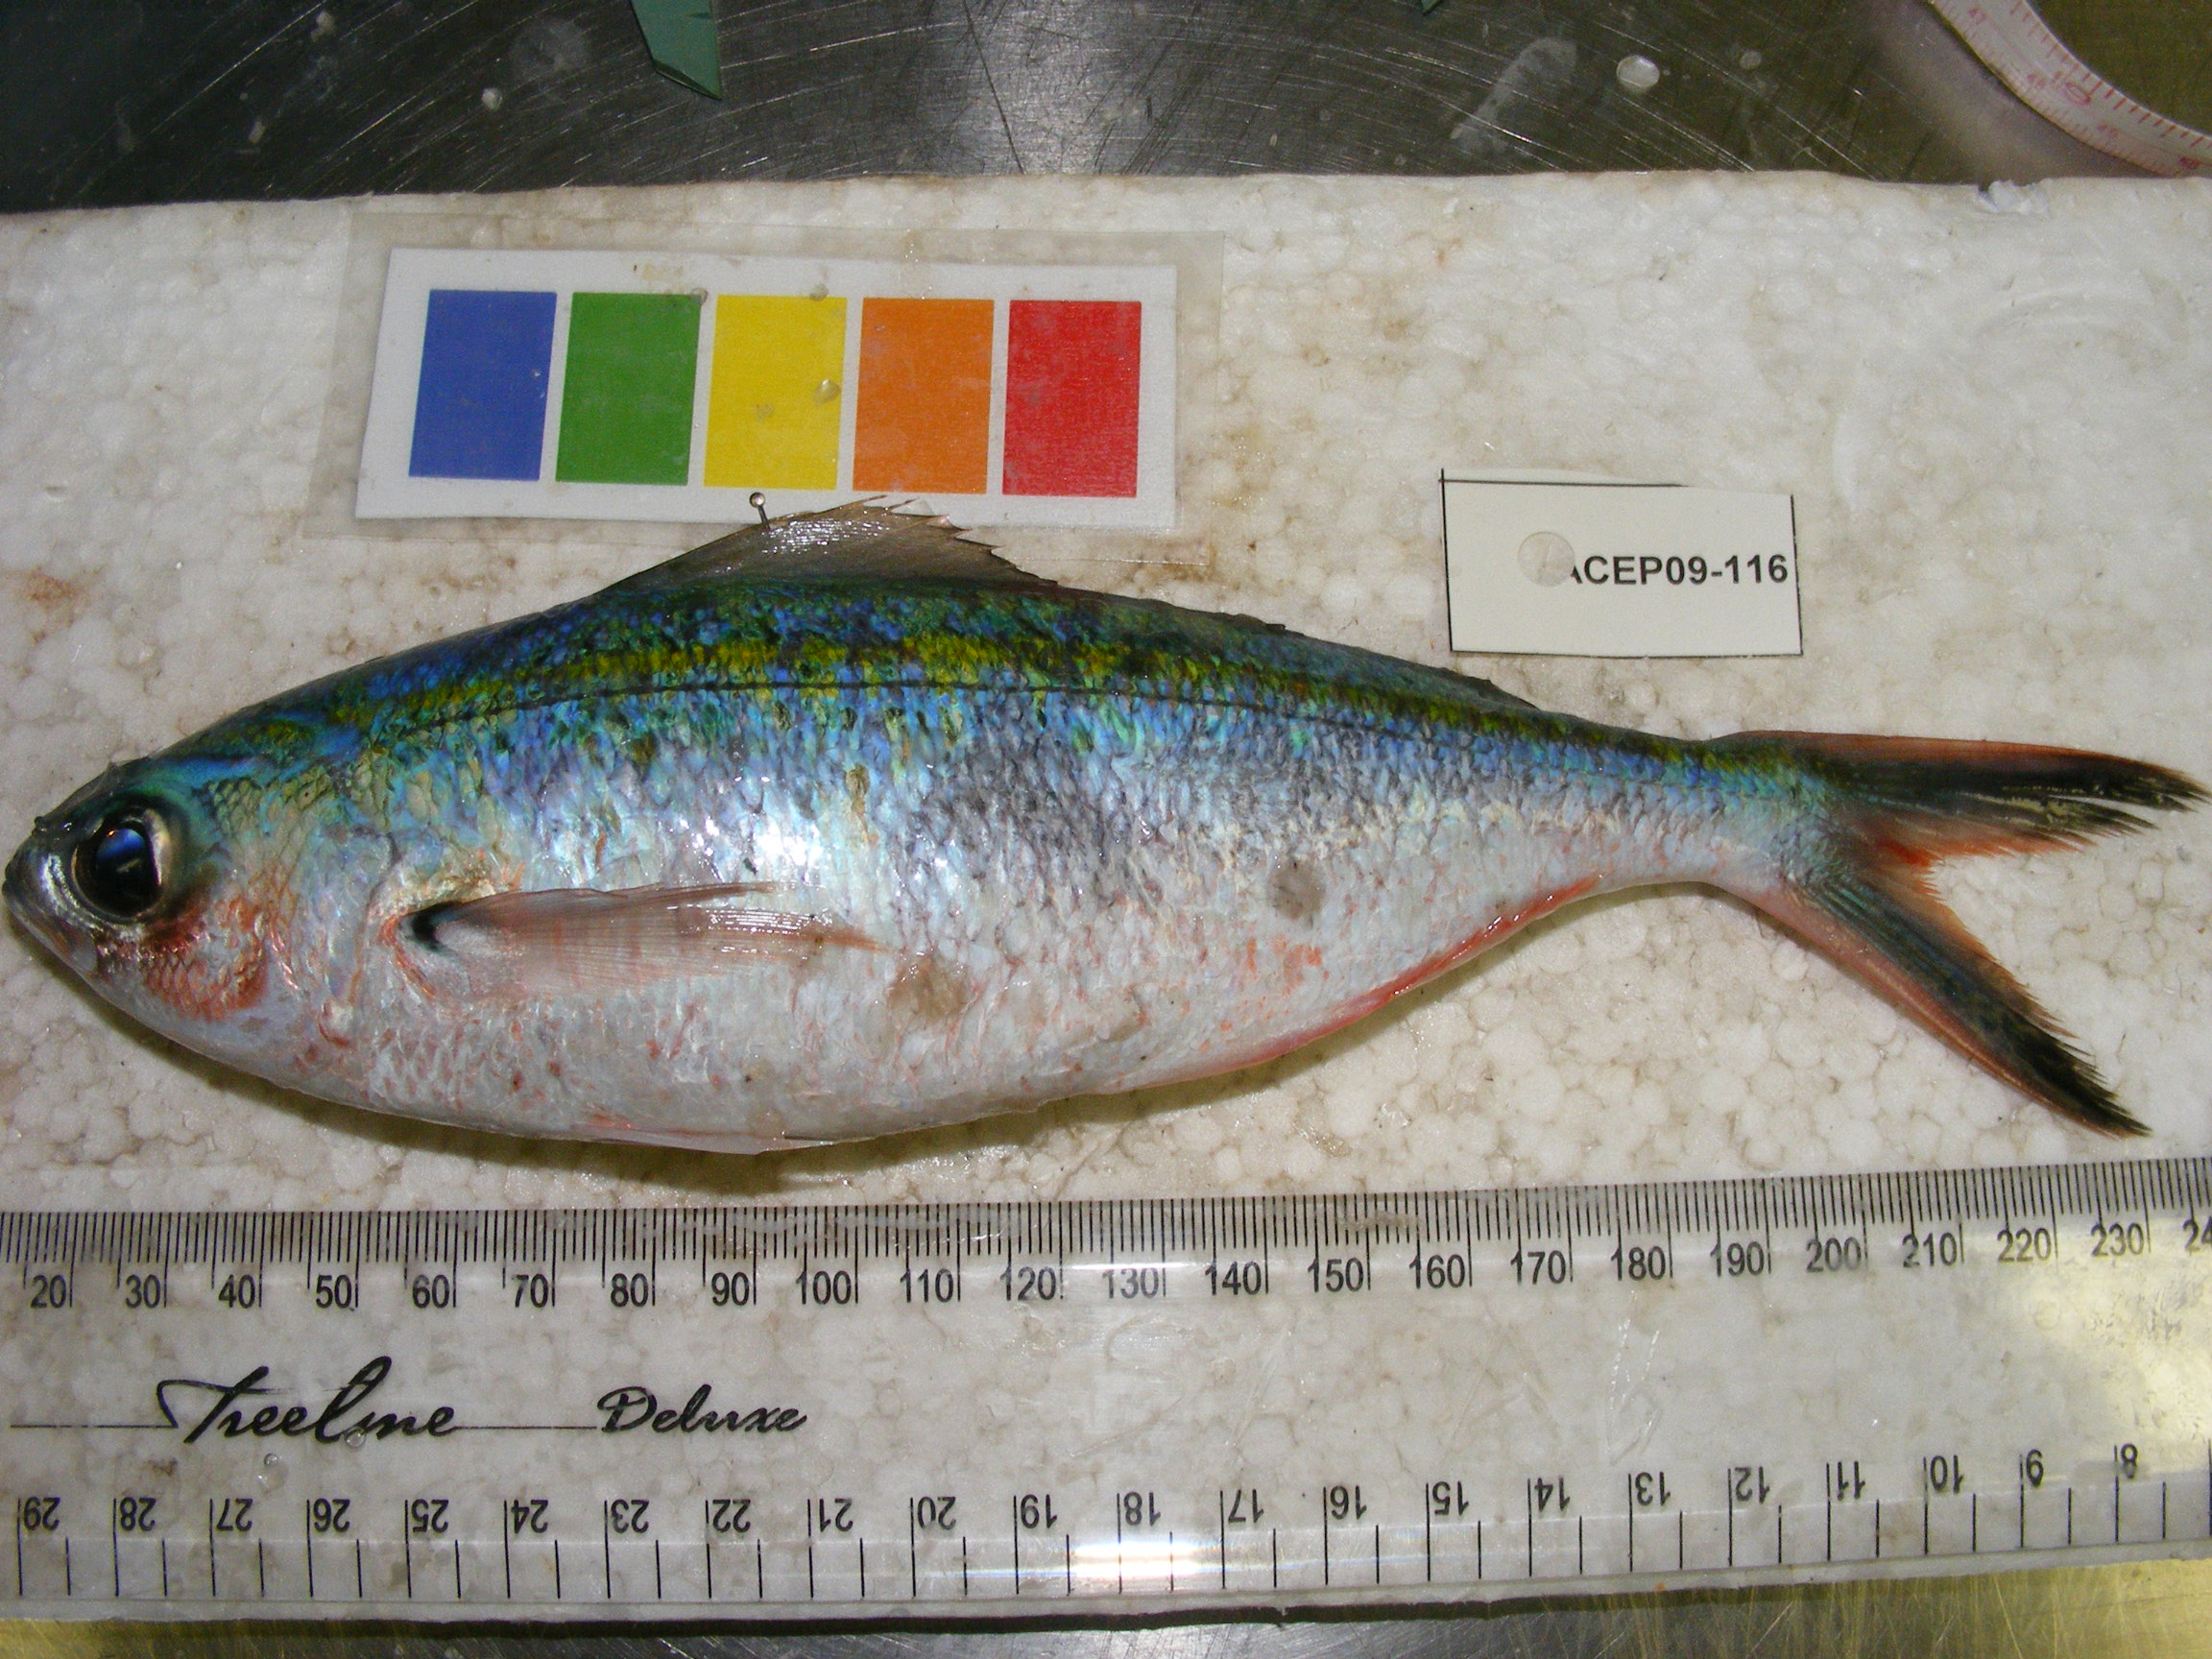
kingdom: Animalia
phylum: Chordata
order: Perciformes
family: Caesionidae
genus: Caesio
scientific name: Caesio
